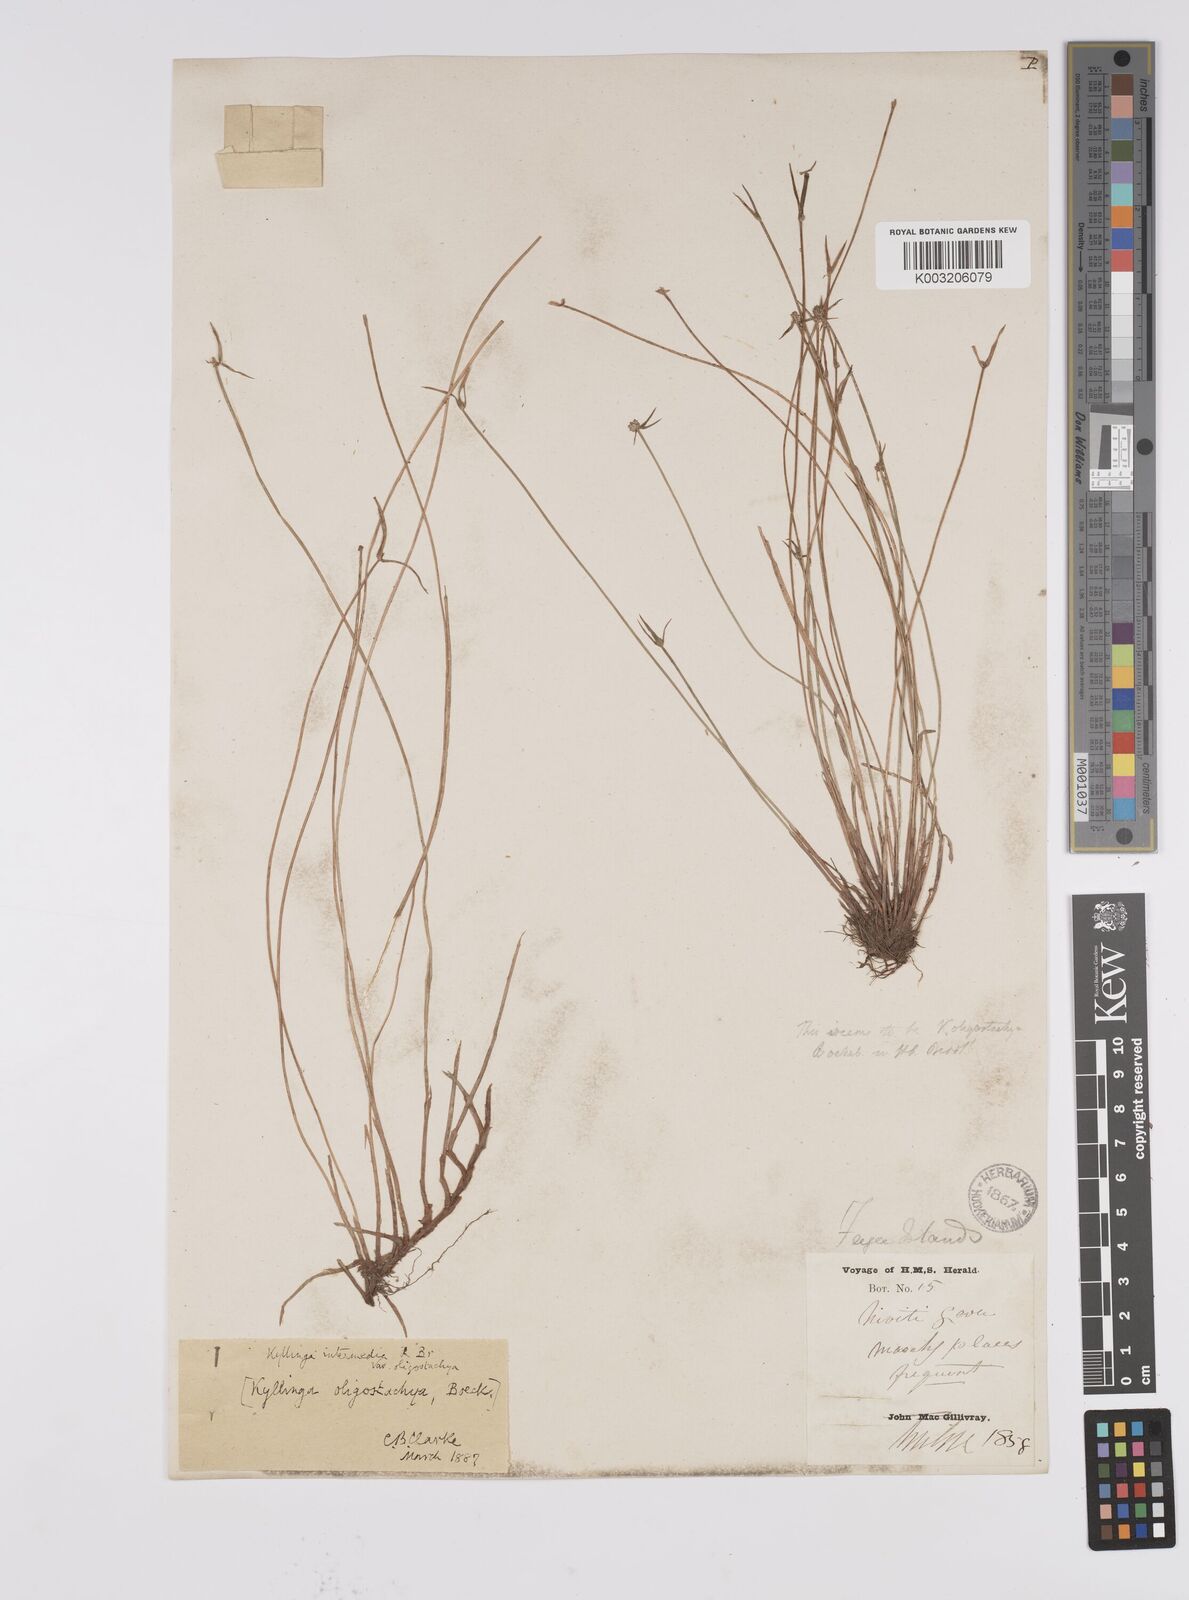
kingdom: Plantae
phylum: Tracheophyta
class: Liliopsida
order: Poales
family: Cyperaceae
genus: Cyperus
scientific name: Cyperus brevifolius
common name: Globe kyllinga
